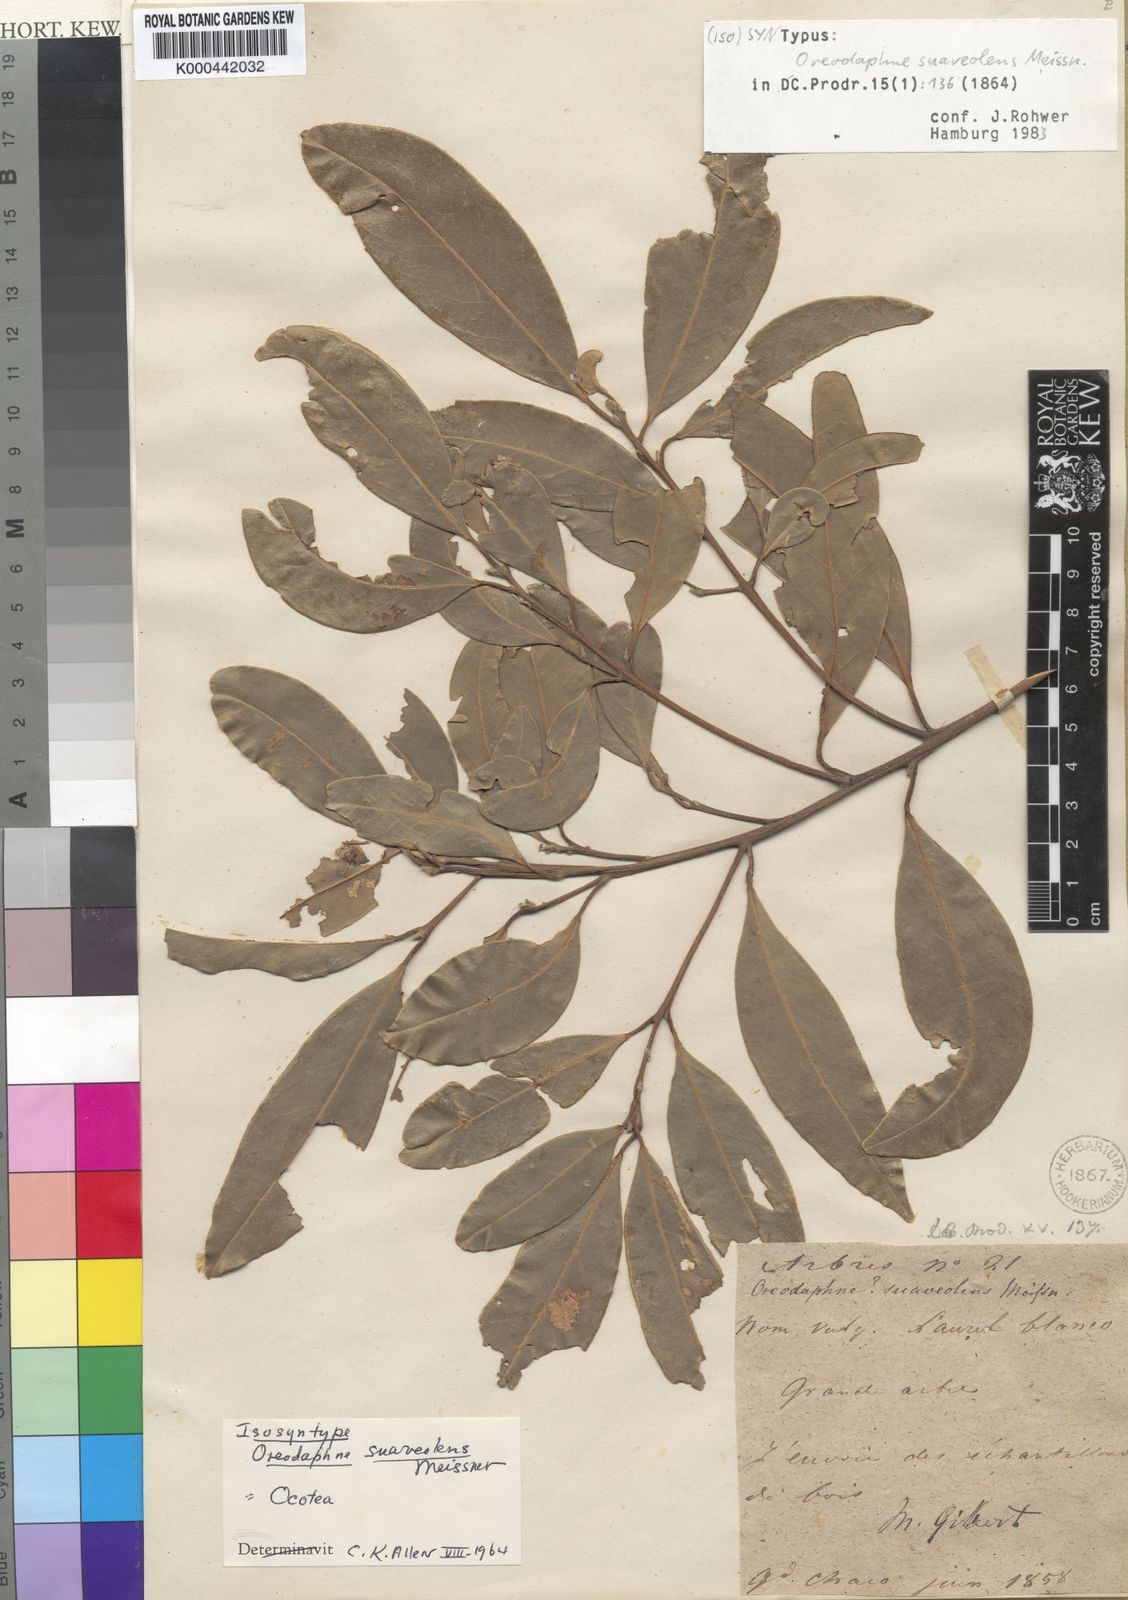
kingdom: Plantae
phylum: Tracheophyta
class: Magnoliopsida
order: Laurales
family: Lauraceae
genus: Ocotea
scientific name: Ocotea diospyrifolia
